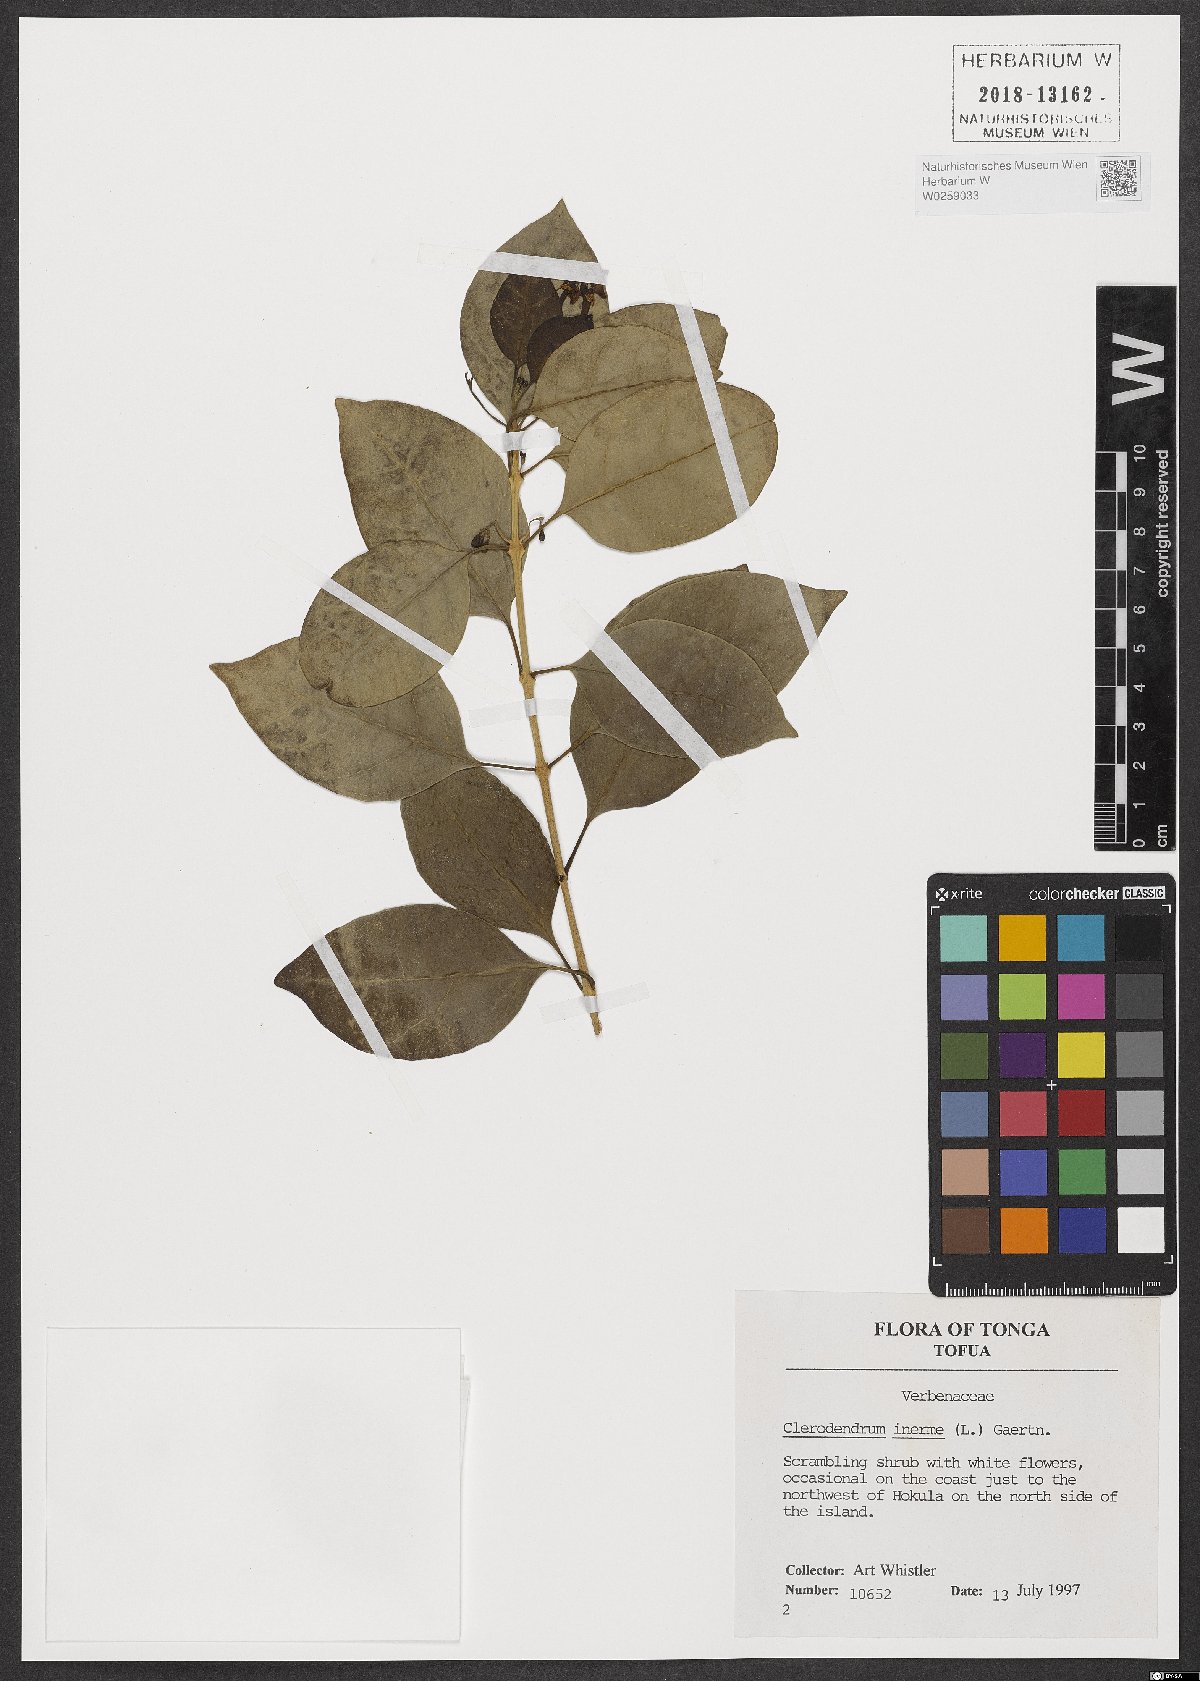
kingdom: Plantae
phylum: Tracheophyta
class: Magnoliopsida
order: Lamiales
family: Lamiaceae
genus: Volkameria
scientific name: Volkameria inermis
